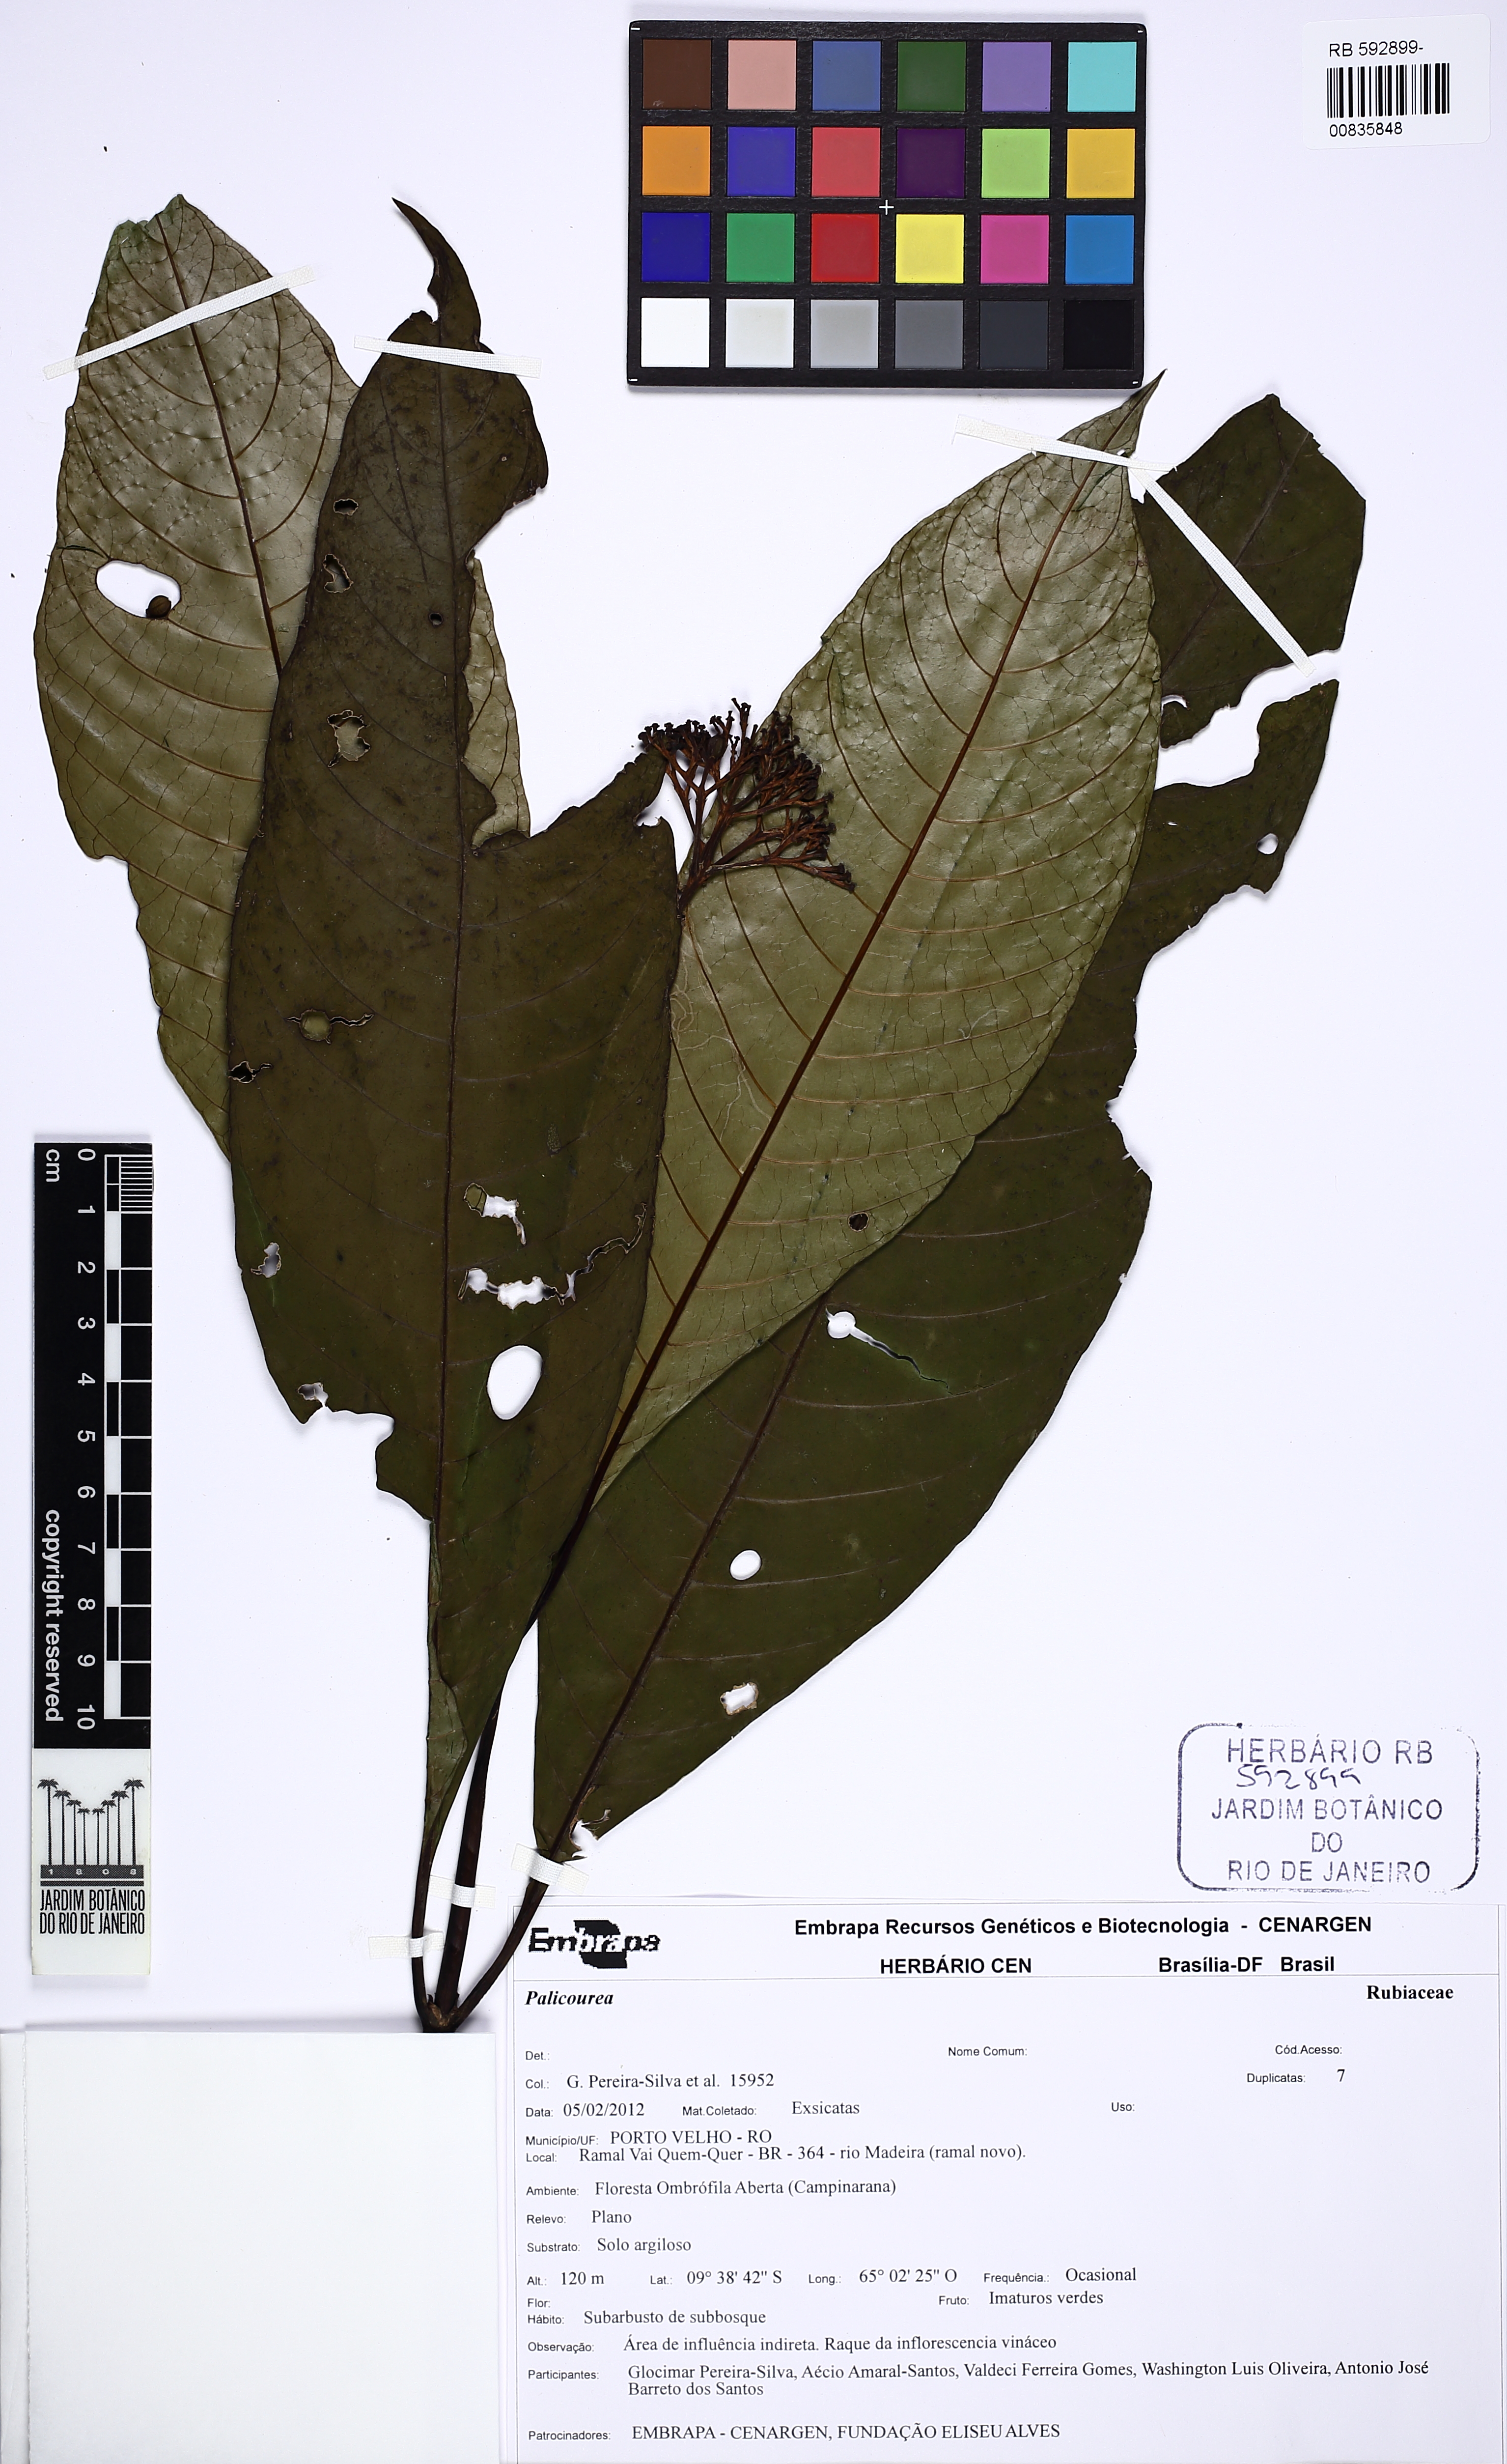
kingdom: Plantae
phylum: Tracheophyta
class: Magnoliopsida
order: Gentianales
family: Rubiaceae
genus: Palicourea
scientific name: Palicourea quadrifolia
